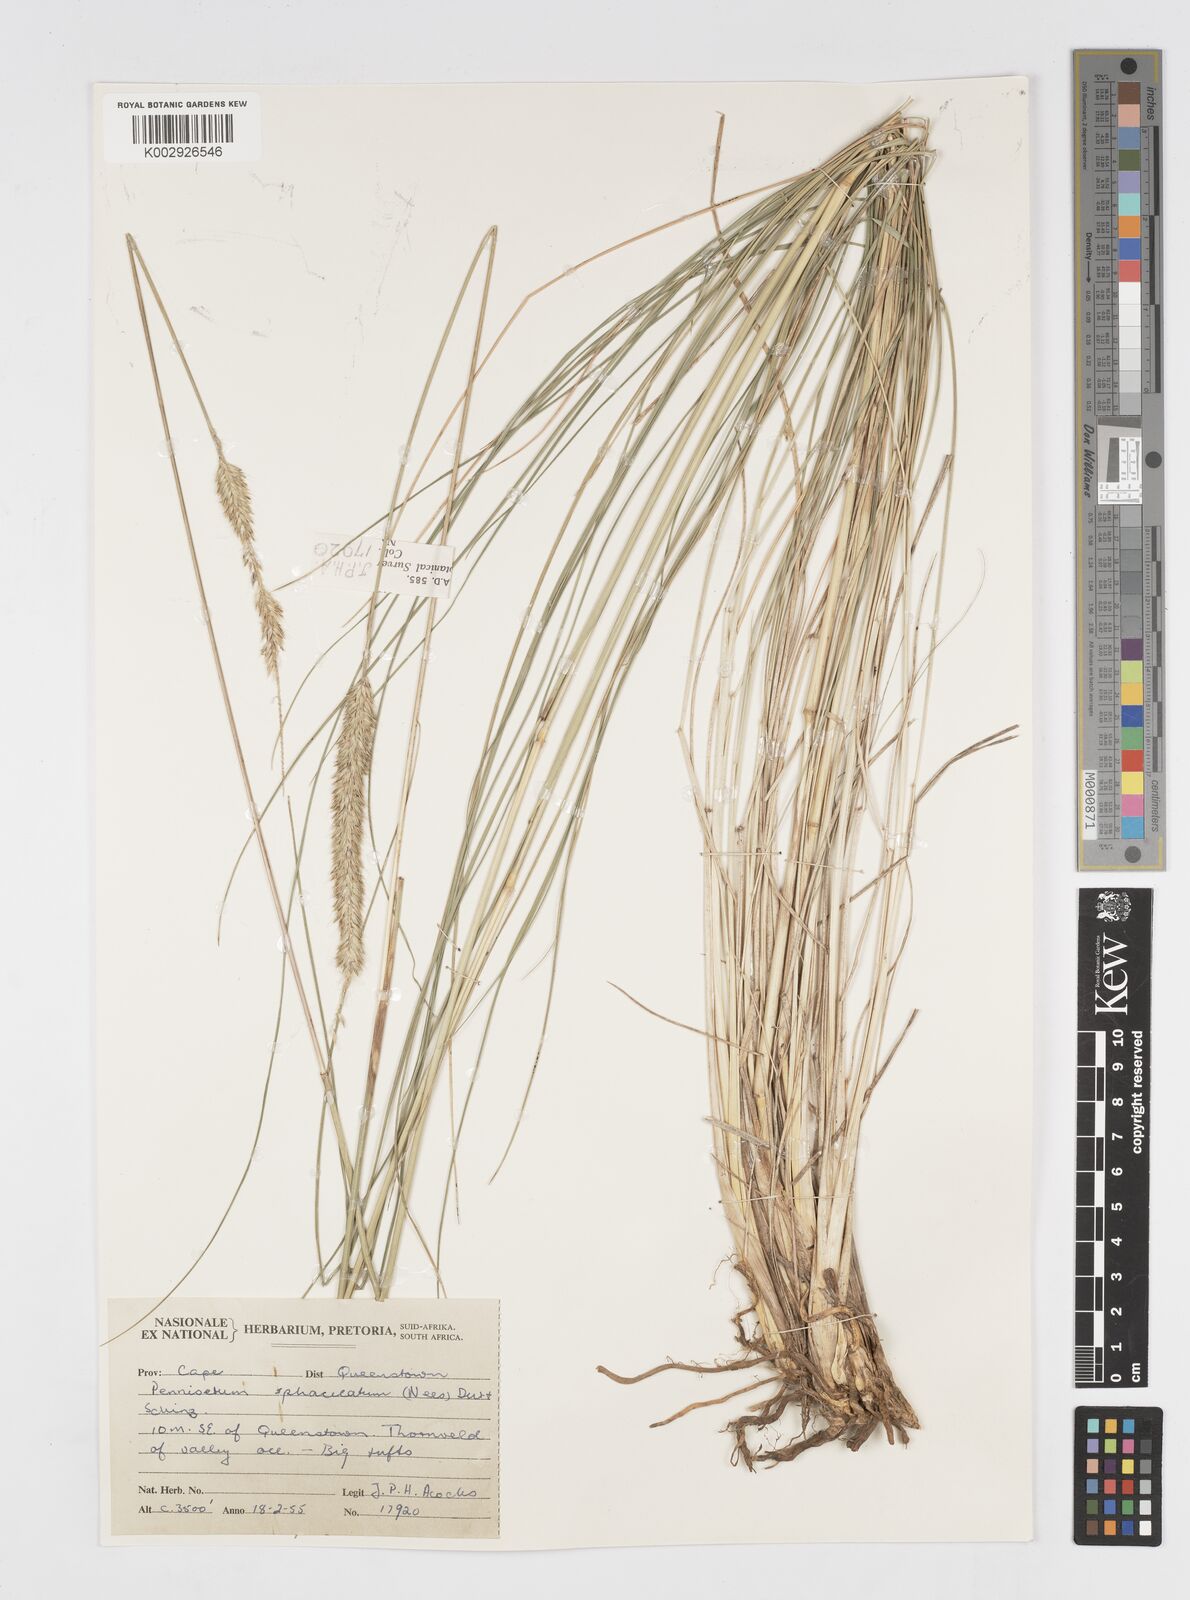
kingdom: Plantae
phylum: Tracheophyta
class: Liliopsida
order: Poales
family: Poaceae
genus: Cenchrus
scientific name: Cenchrus sphacelatus
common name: Bulgras
